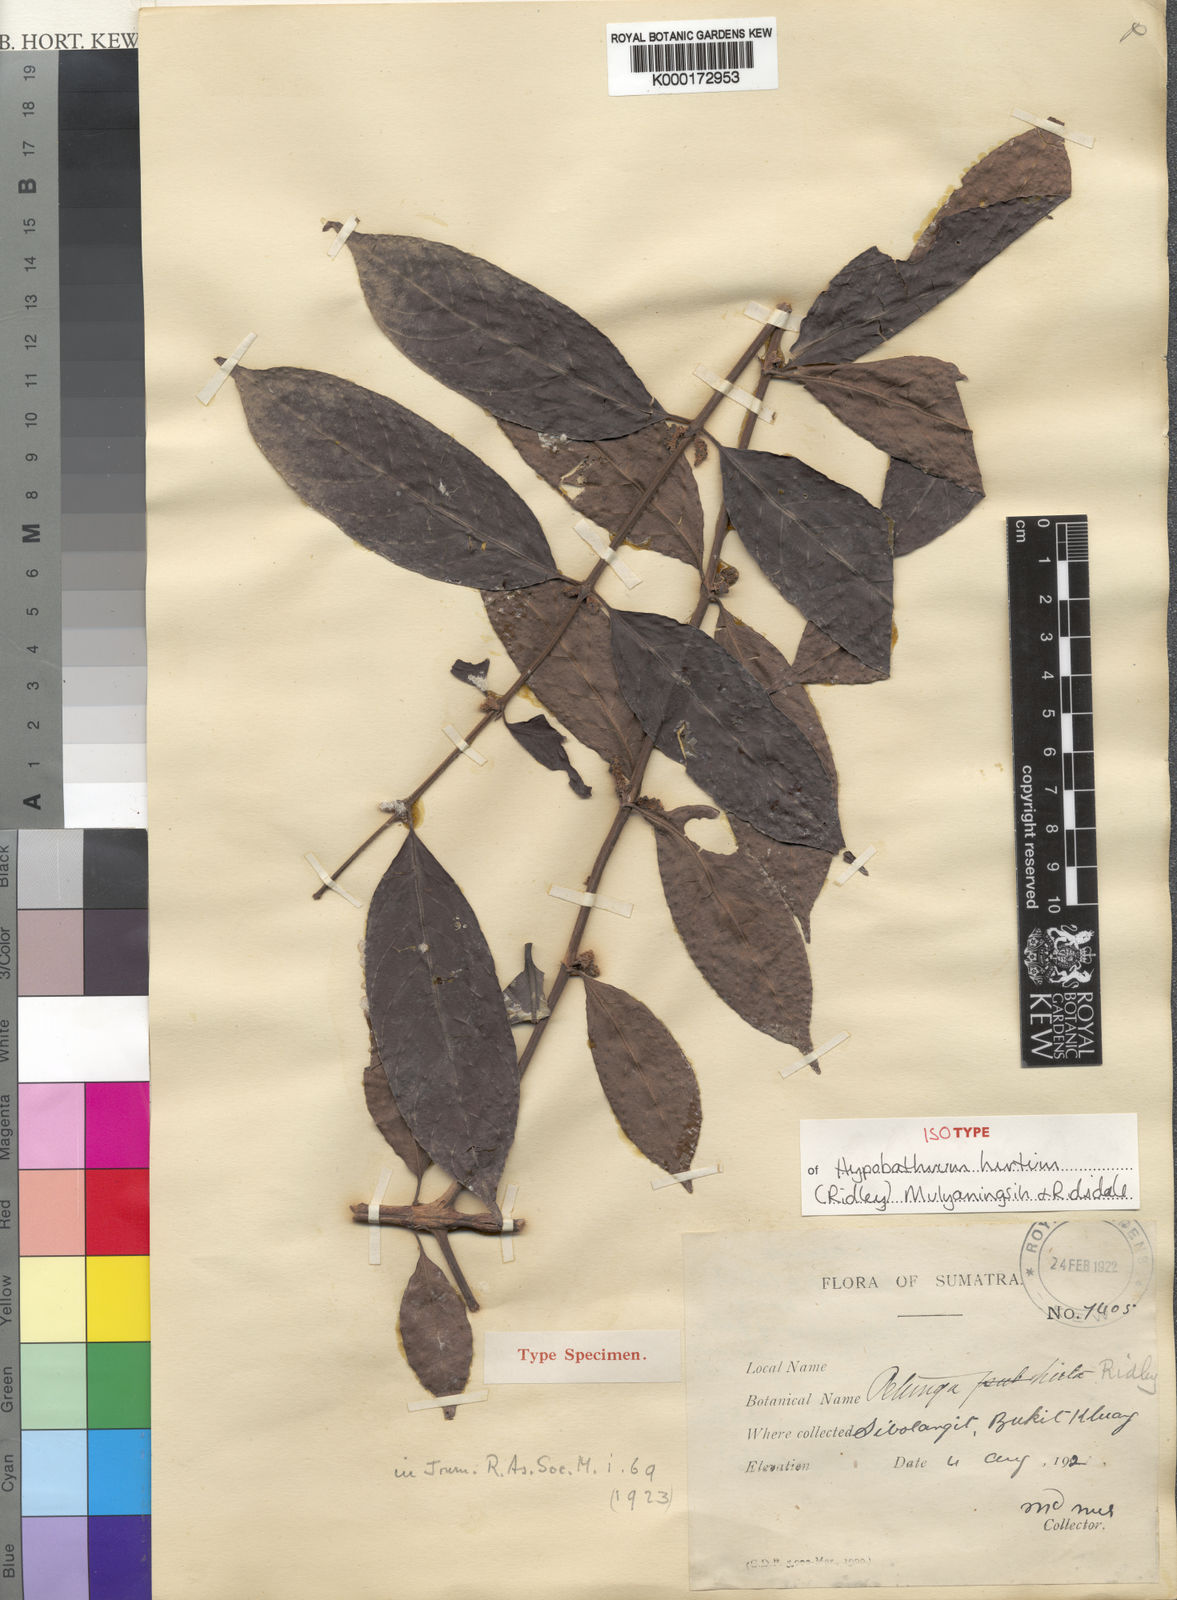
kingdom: Plantae
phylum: Tracheophyta
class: Magnoliopsida
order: Gentianales
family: Rubiaceae
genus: Hypobathrum
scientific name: Hypobathrum hirtum
